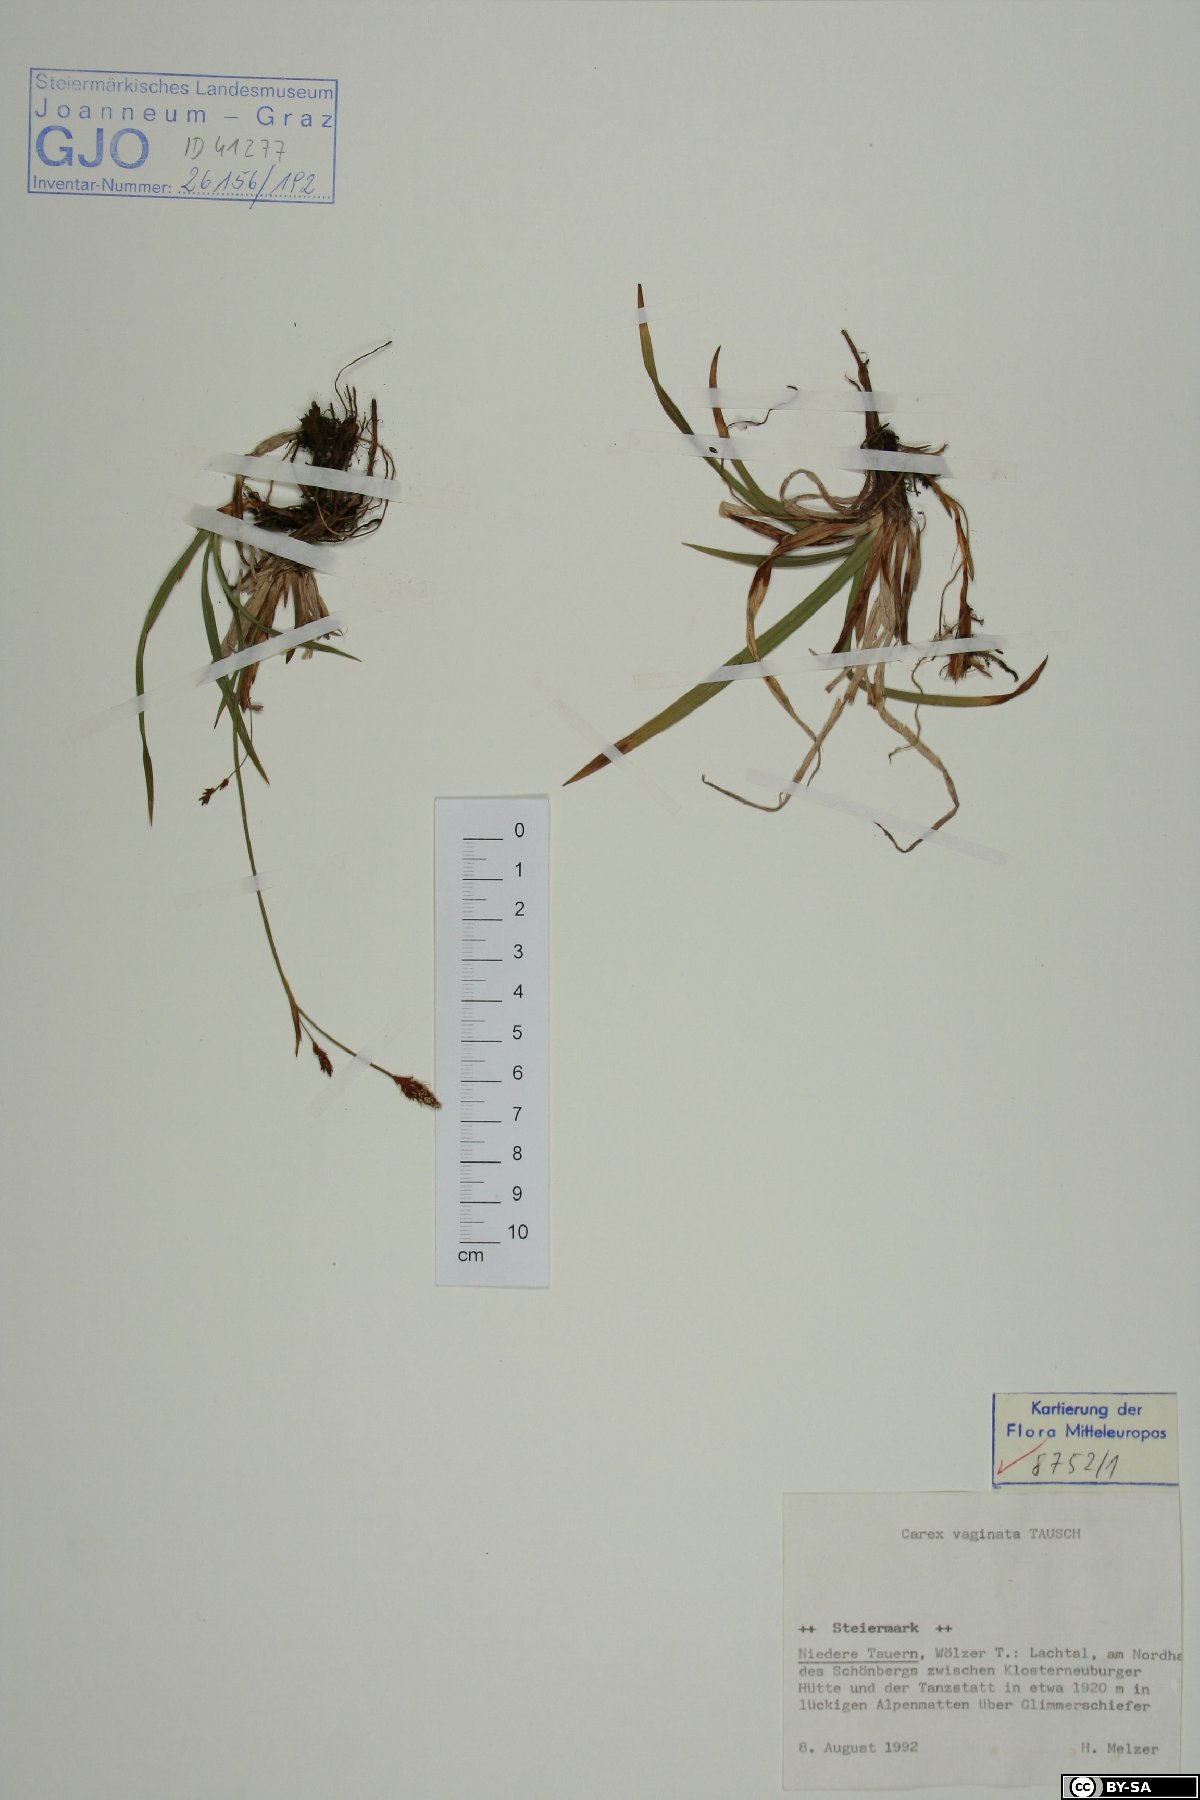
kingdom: Plantae
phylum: Tracheophyta
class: Liliopsida
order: Poales
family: Cyperaceae
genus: Carex
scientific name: Carex vaginata
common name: Sheathed sedge
